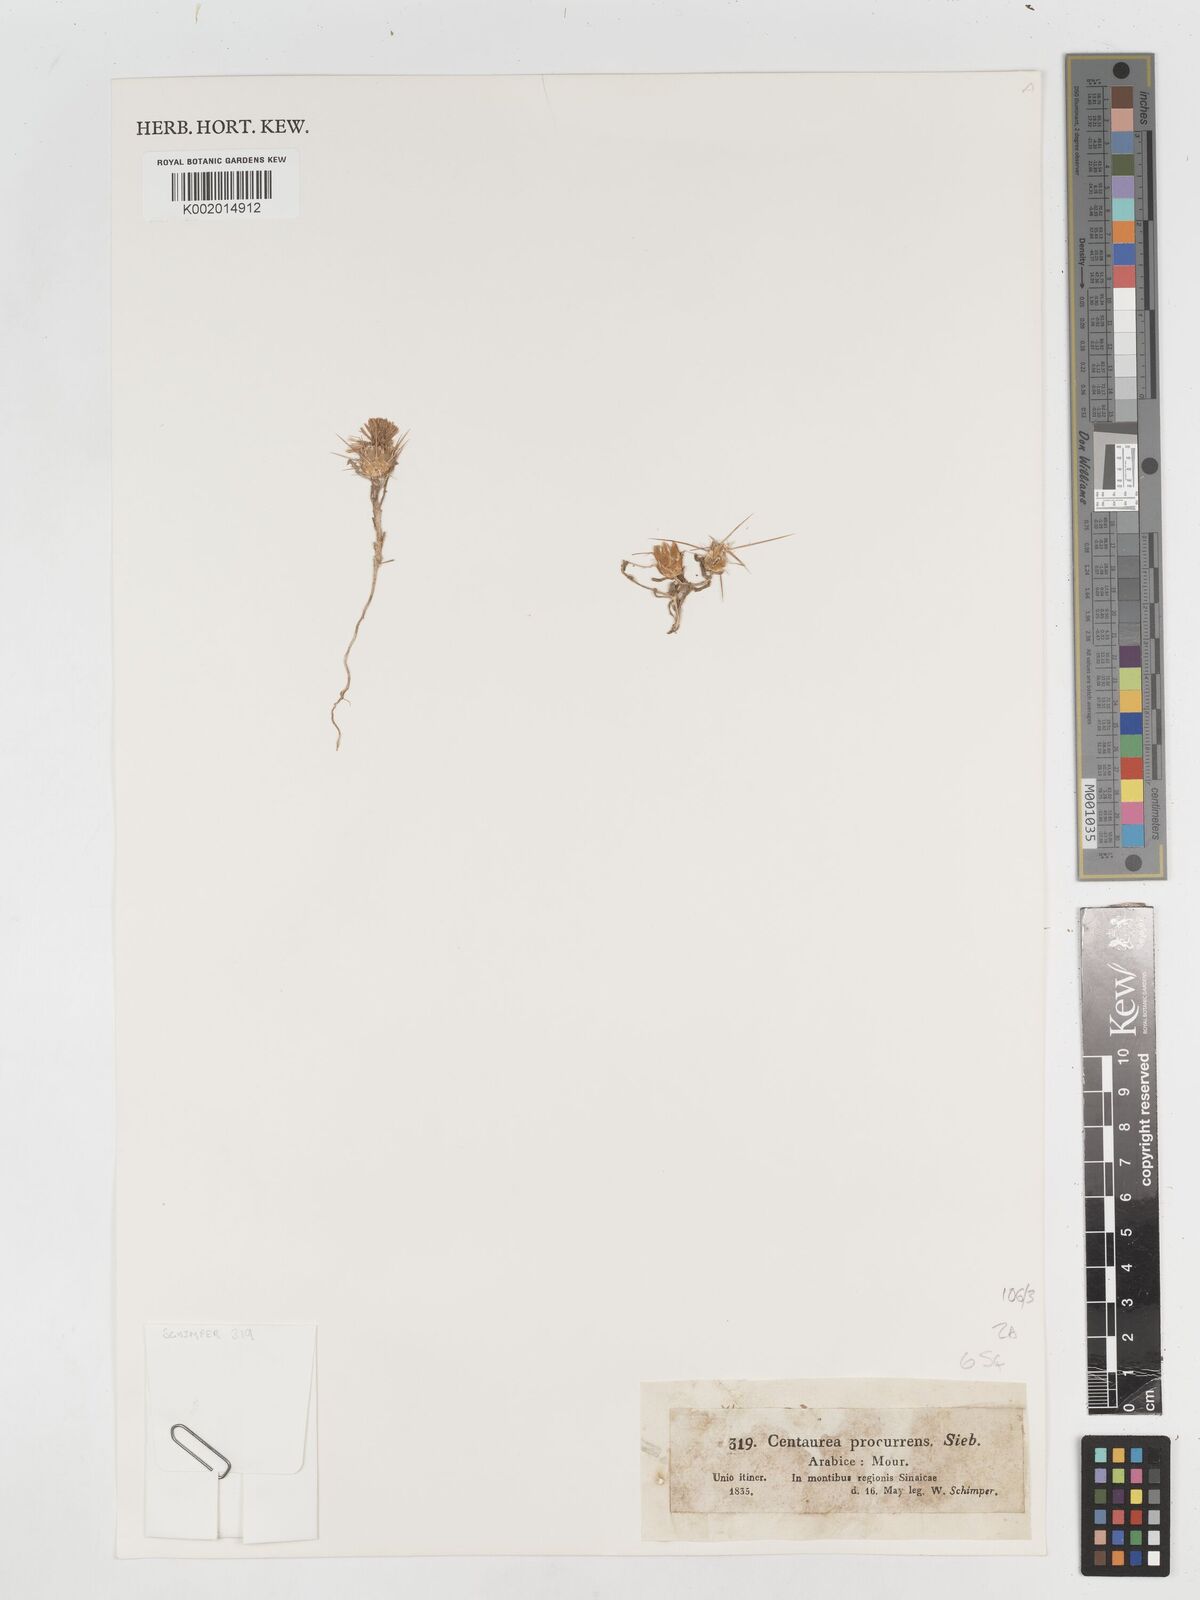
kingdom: Plantae
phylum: Tracheophyta
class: Magnoliopsida
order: Asterales
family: Asteraceae
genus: Centaurea
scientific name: Centaurea procurrens
